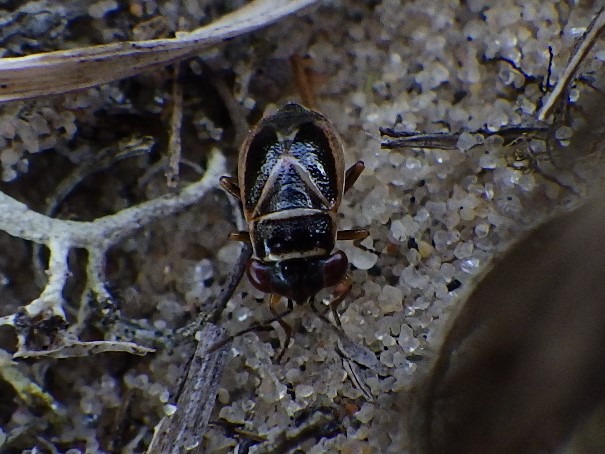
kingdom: Animalia
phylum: Arthropoda
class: Insecta
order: Hemiptera
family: Geocoridae
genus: Geocoris
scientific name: Geocoris grylloides
